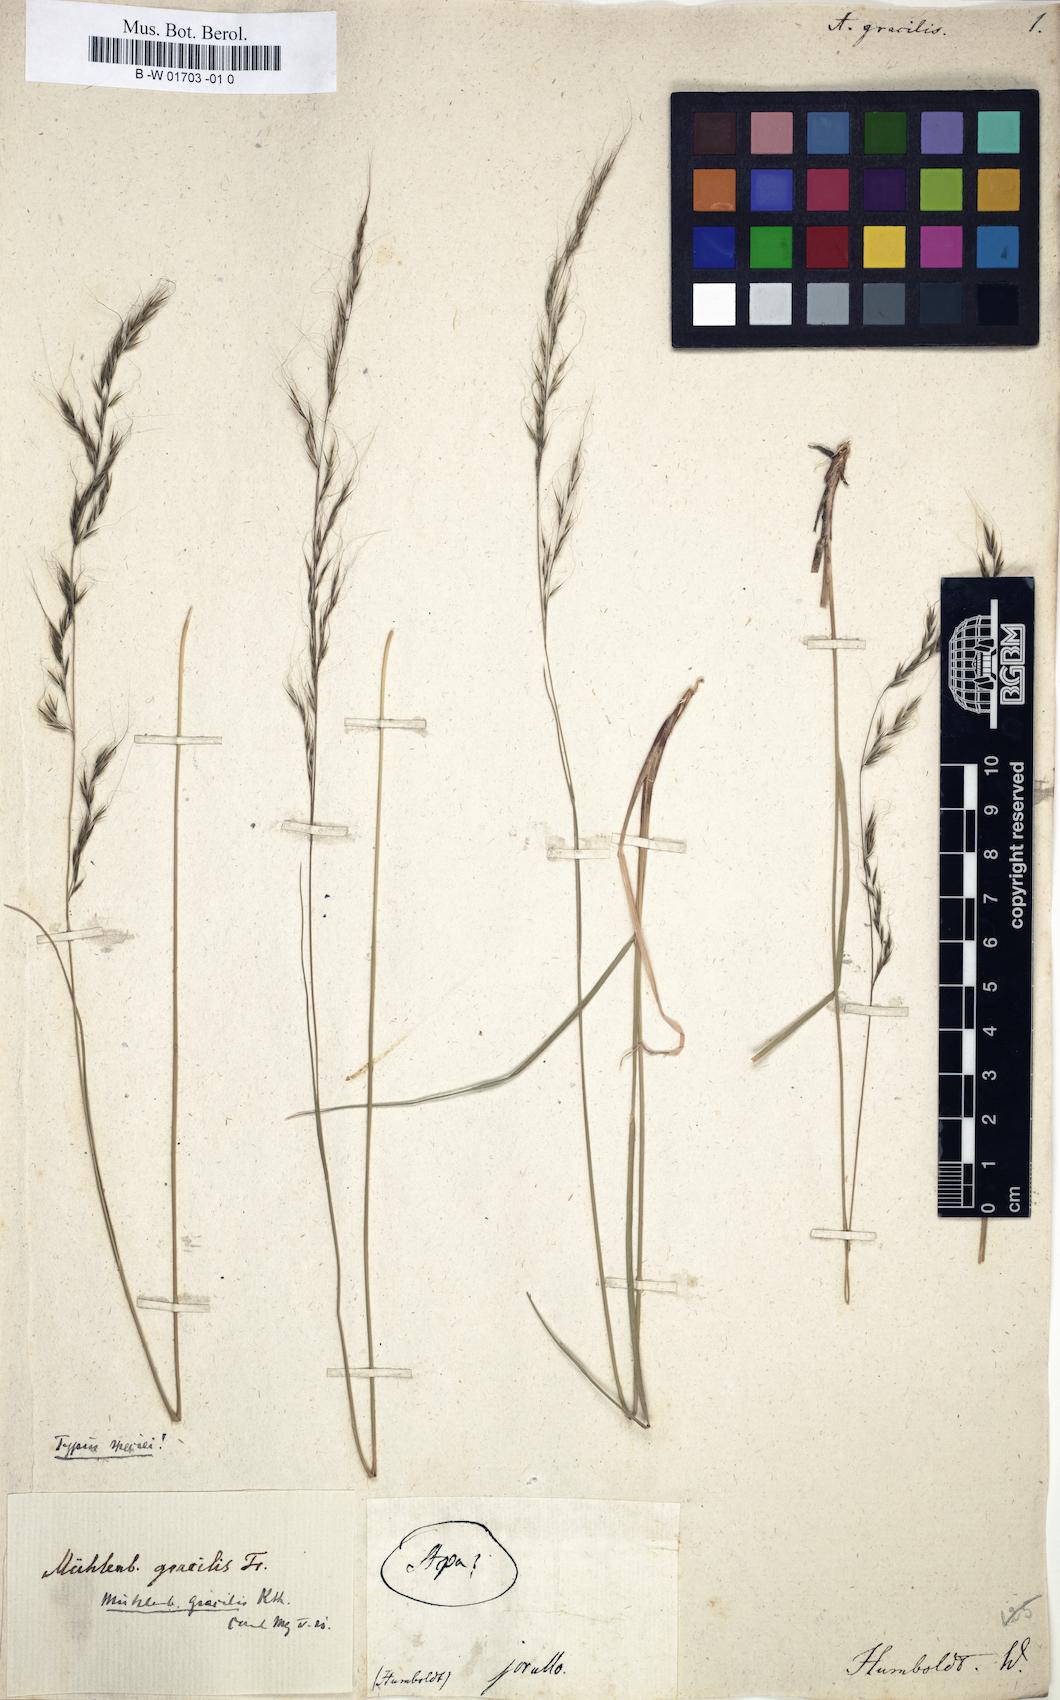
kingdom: Plantae
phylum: Tracheophyta
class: Liliopsida
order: Poales
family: Poaceae
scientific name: Poaceae
